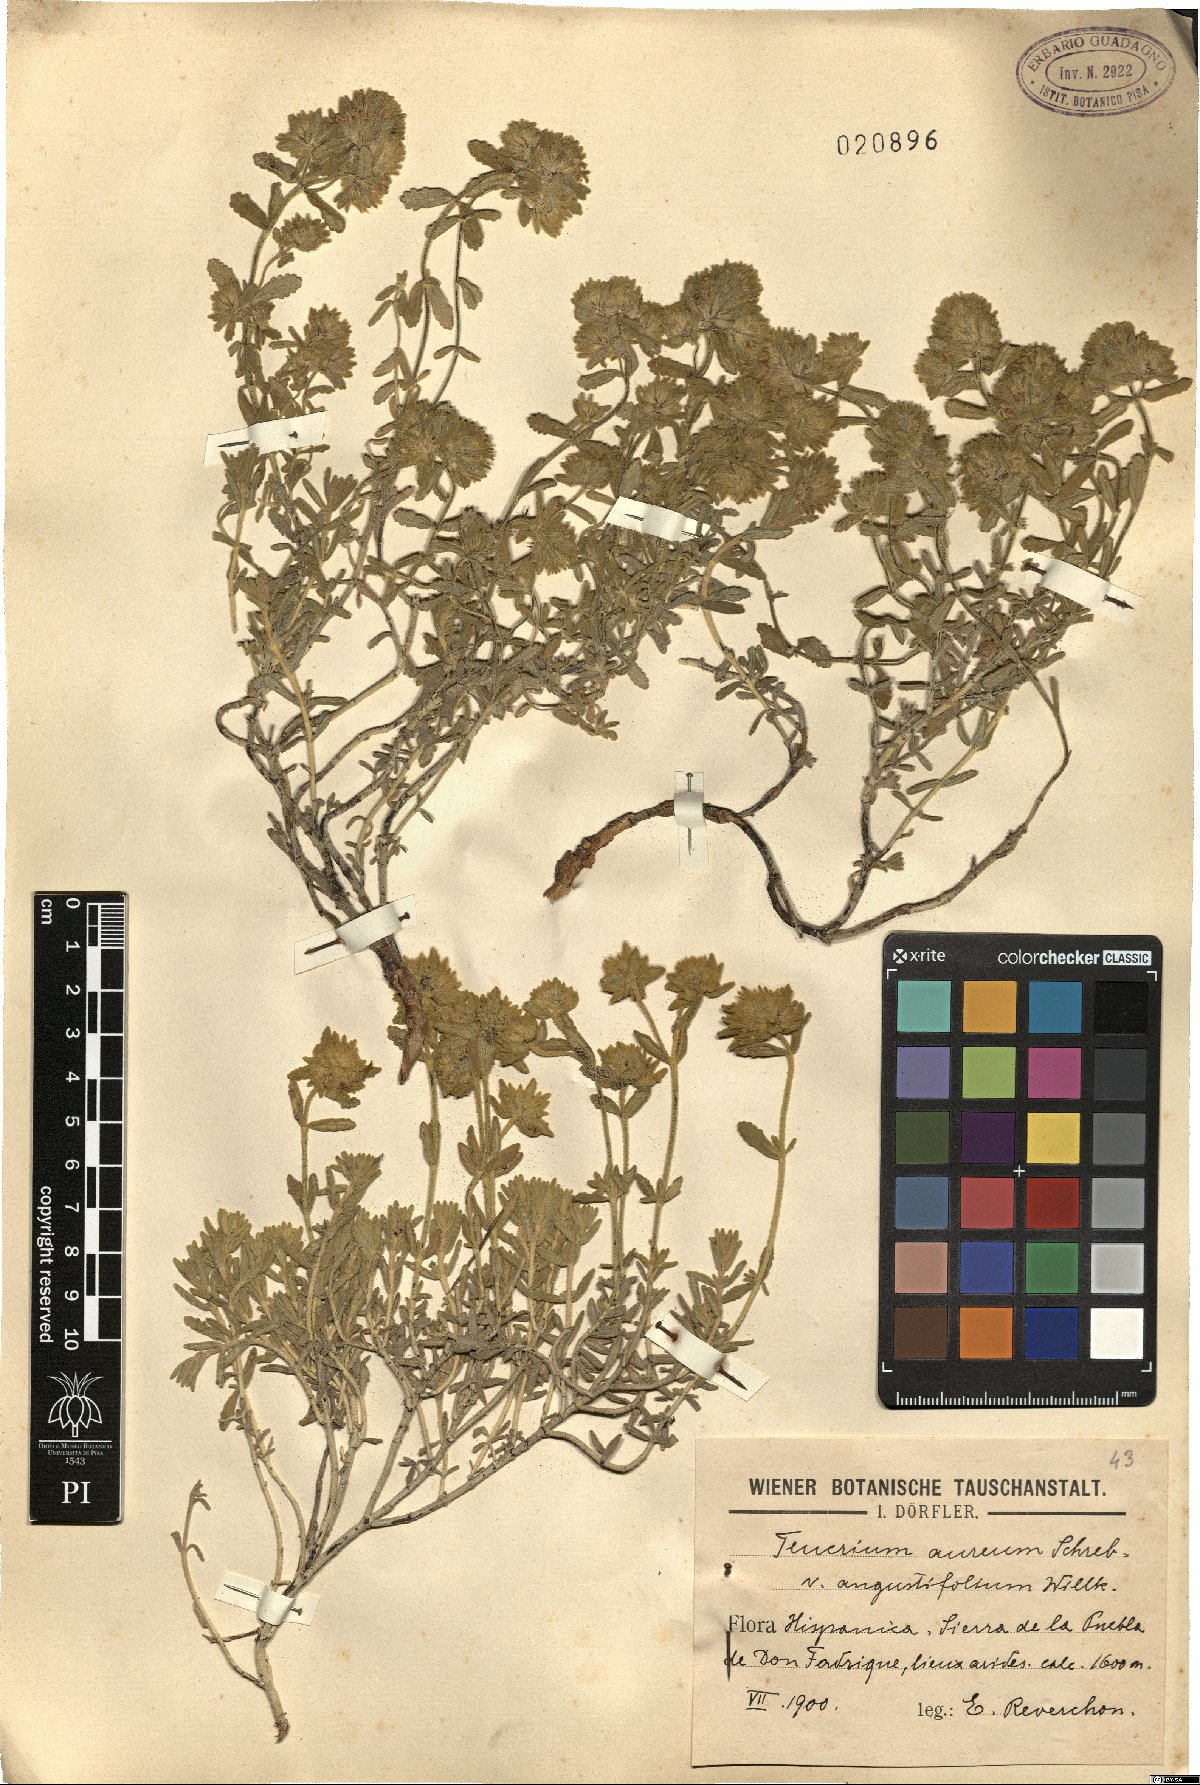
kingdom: Plantae
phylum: Tracheophyta
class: Magnoliopsida
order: Lamiales
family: Lamiaceae
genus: Teucrium
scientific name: Teucrium aureum
